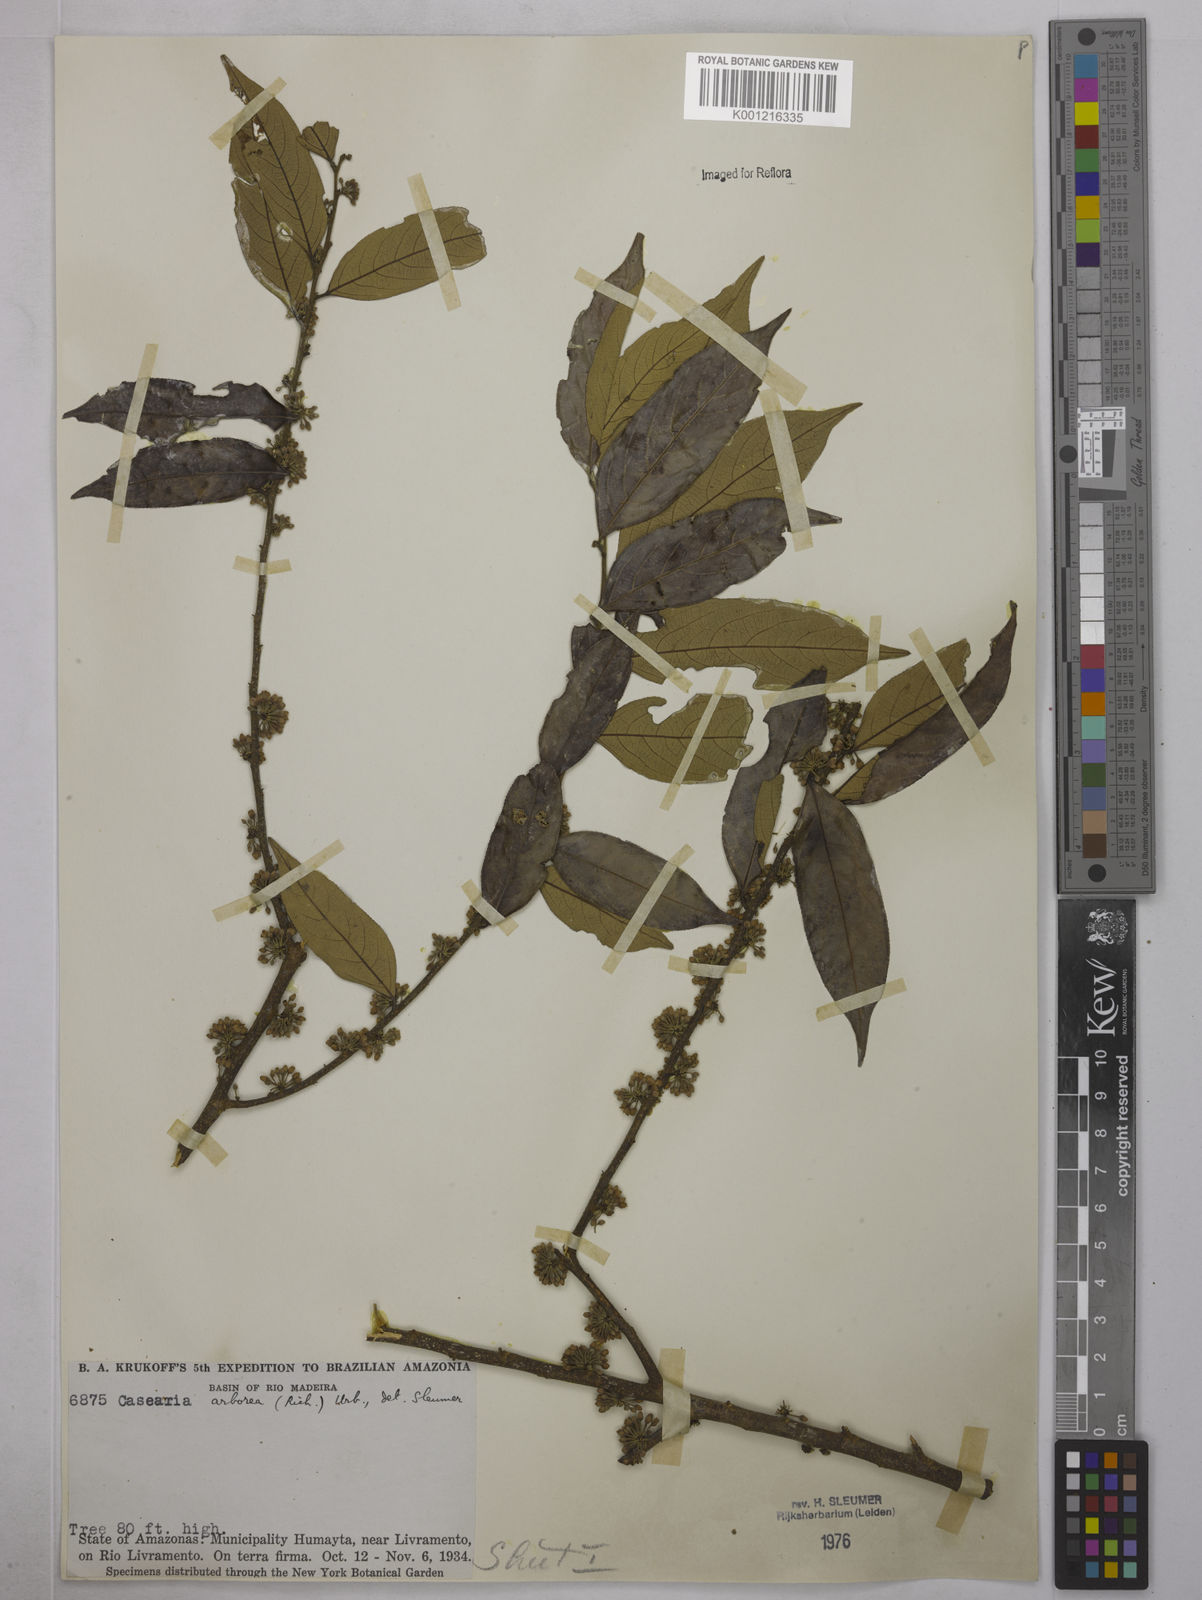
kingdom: Plantae
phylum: Tracheophyta
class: Magnoliopsida
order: Malpighiales
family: Salicaceae
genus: Casearia
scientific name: Casearia arborea
